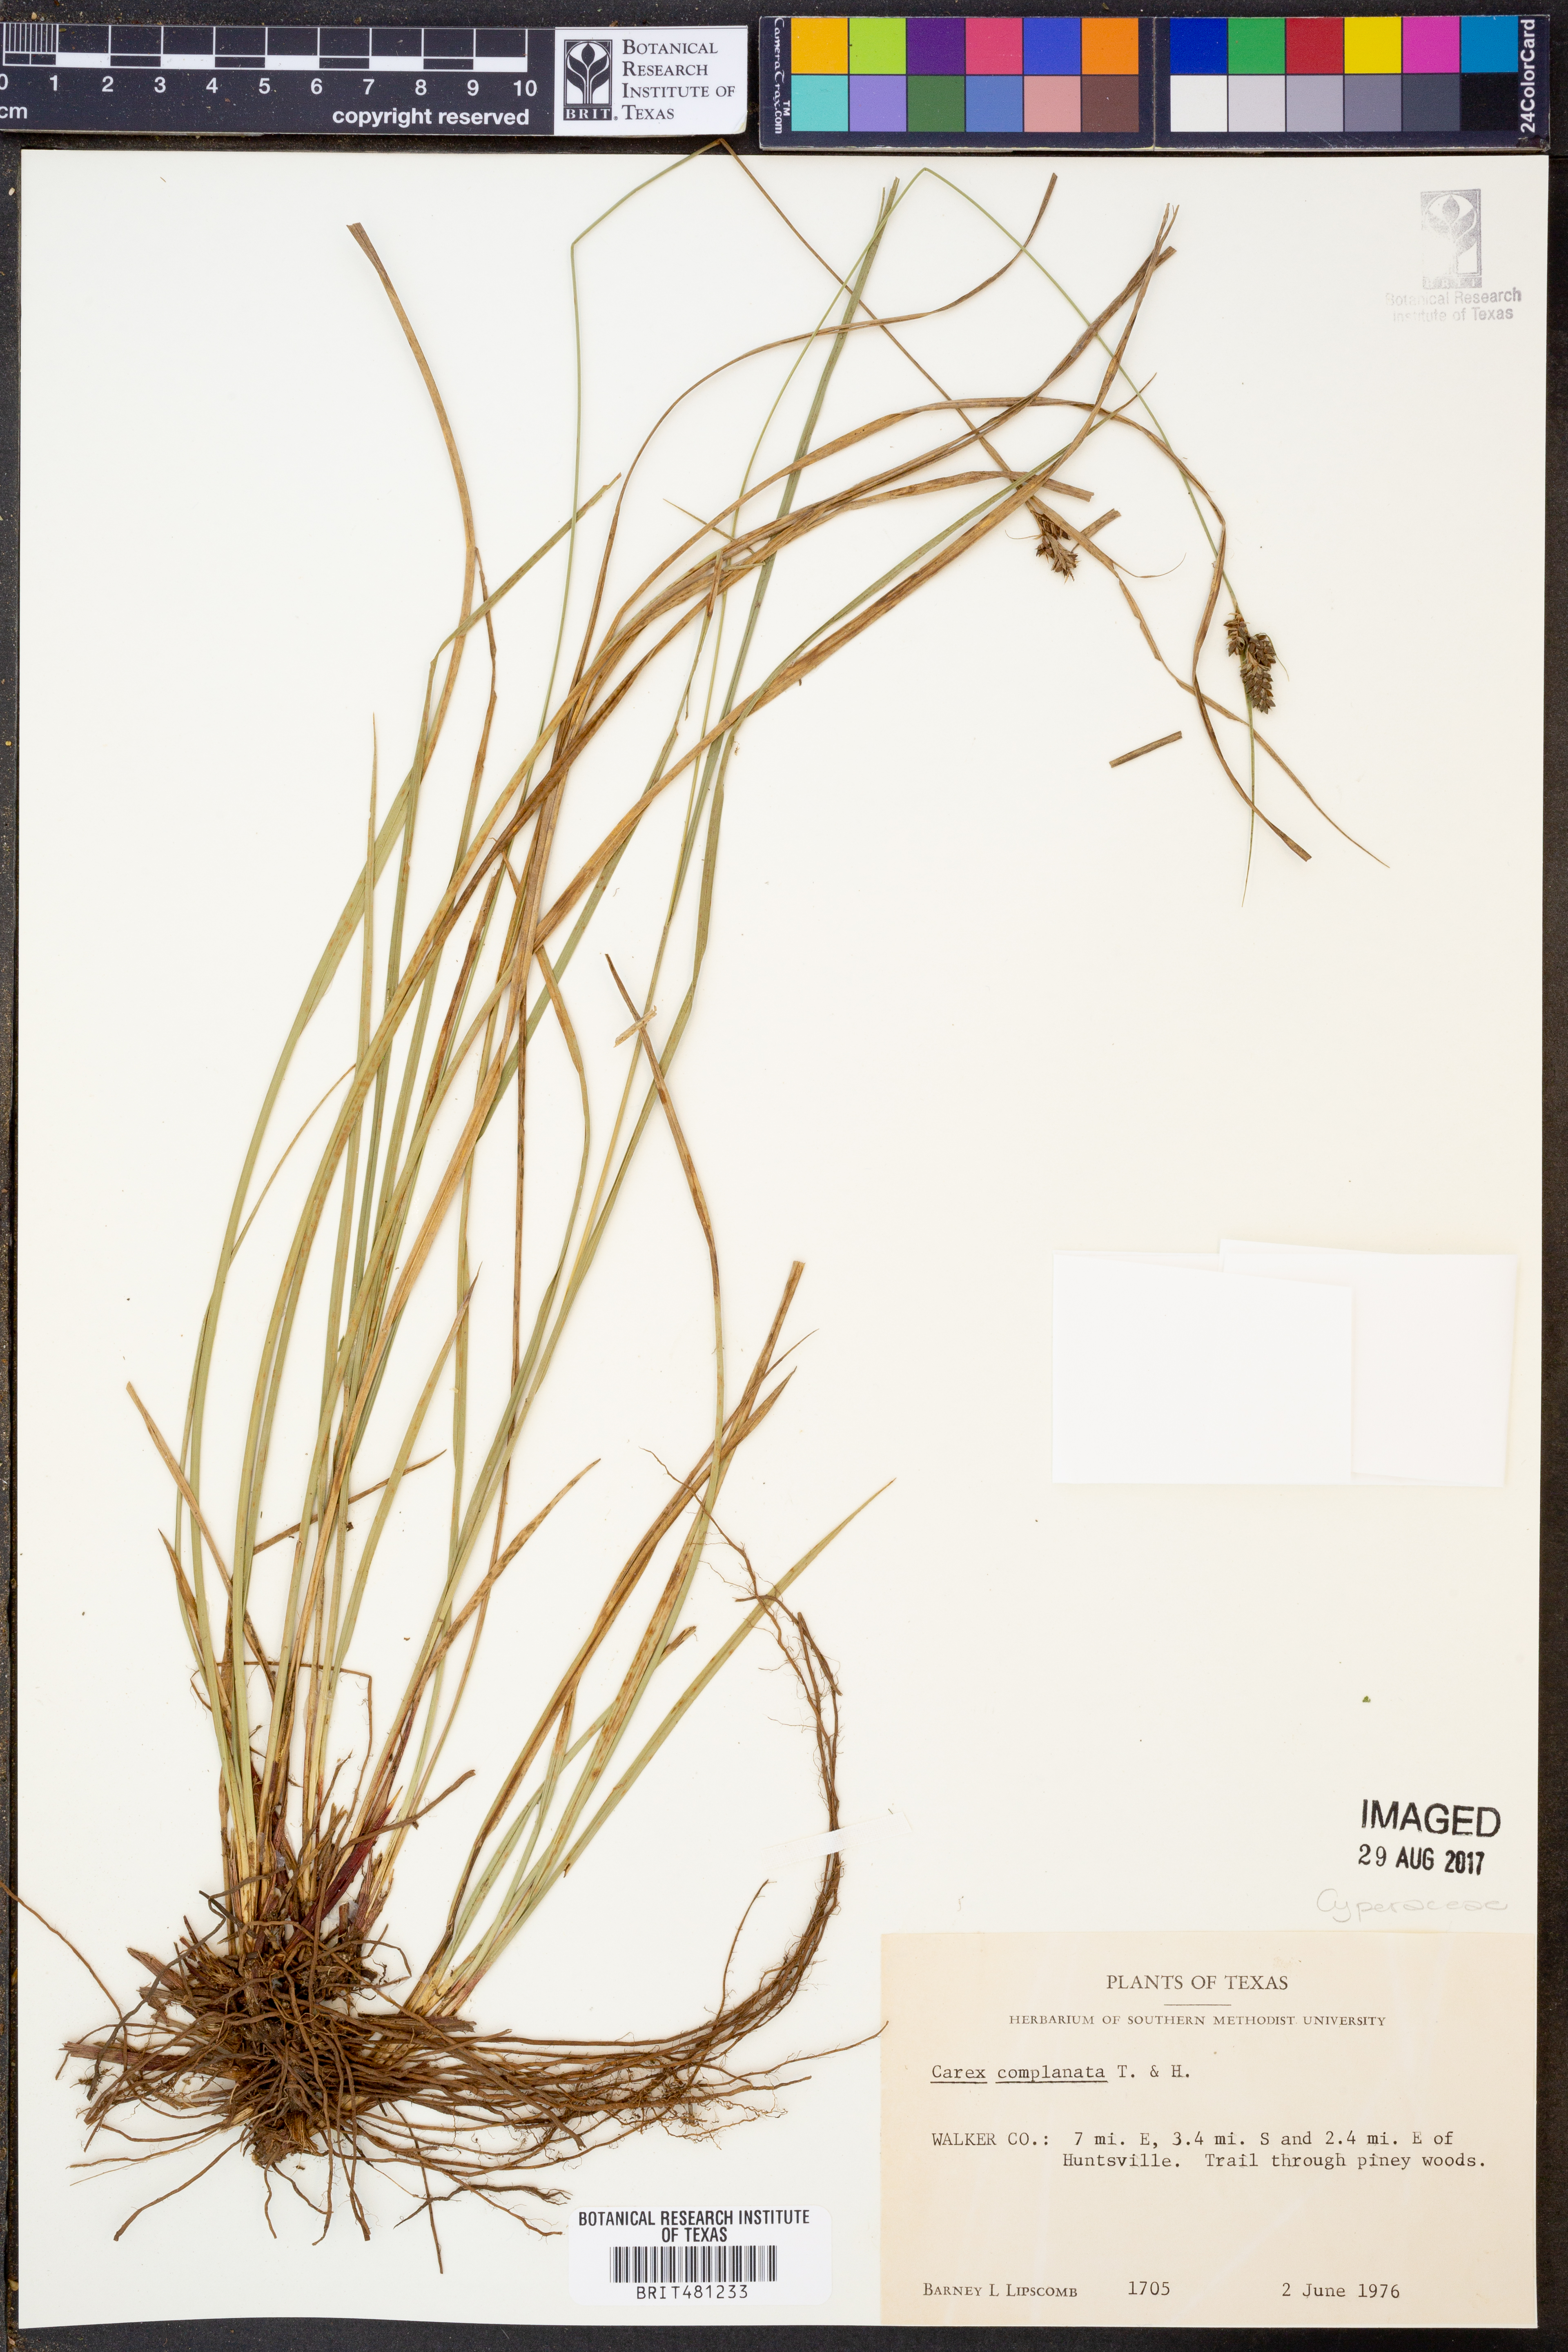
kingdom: Plantae
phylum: Tracheophyta
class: Liliopsida
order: Poales
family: Cyperaceae
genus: Carex
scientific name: Carex complanata
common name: Hirsute sedge
